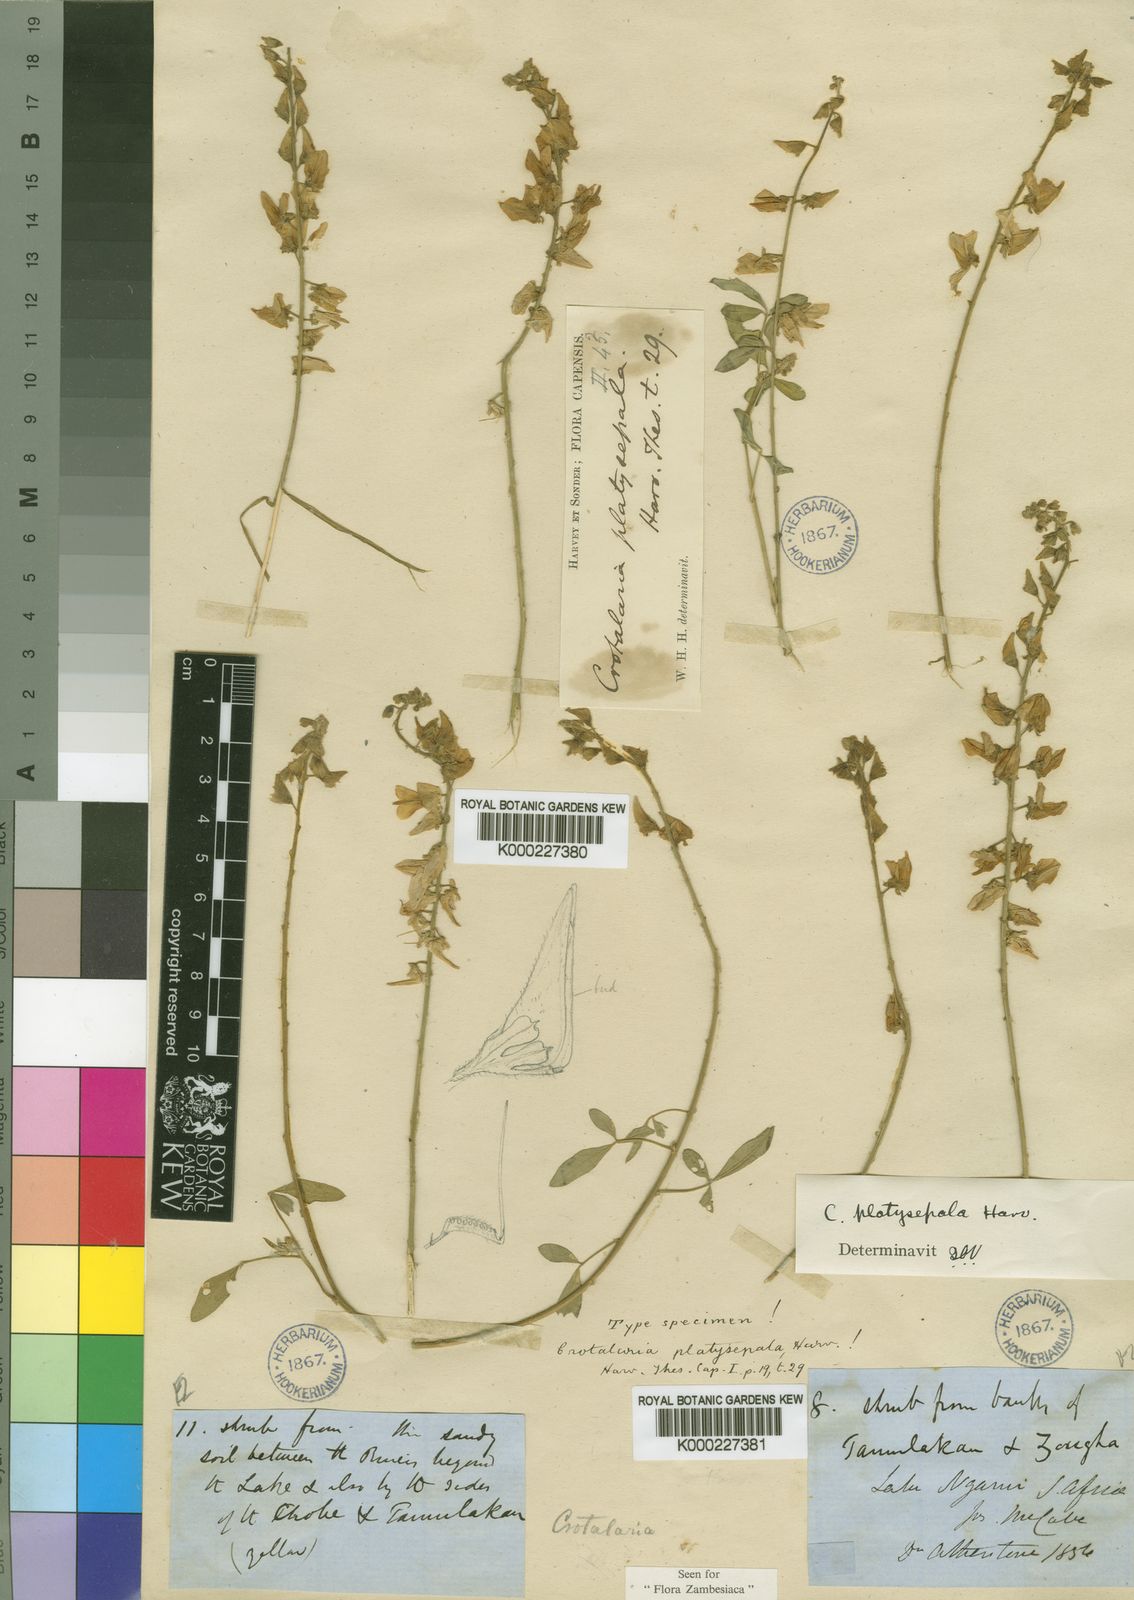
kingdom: Plantae
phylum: Tracheophyta
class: Magnoliopsida
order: Fabales
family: Fabaceae
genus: Crotalaria
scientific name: Crotalaria platysepala
